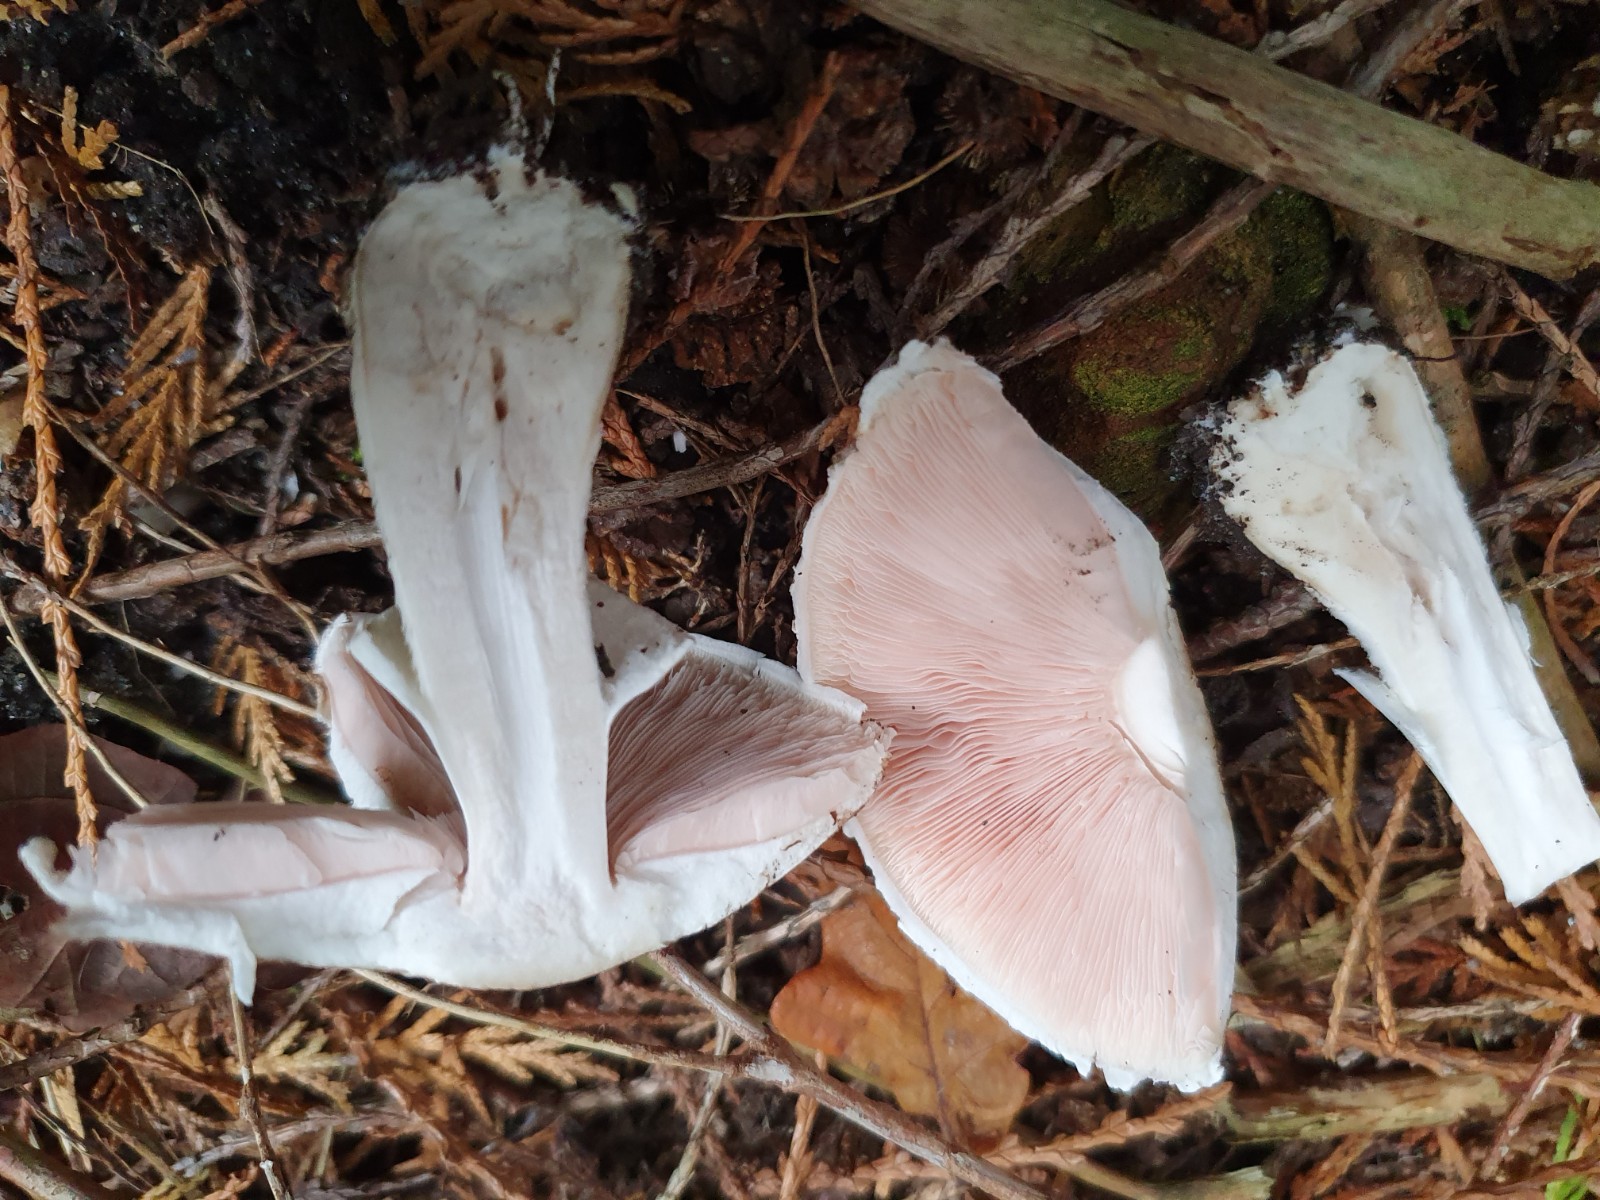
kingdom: Fungi
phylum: Basidiomycota
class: Agaricomycetes
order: Agaricales
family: Agaricaceae
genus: Agaricus
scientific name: Agaricus impudicus
